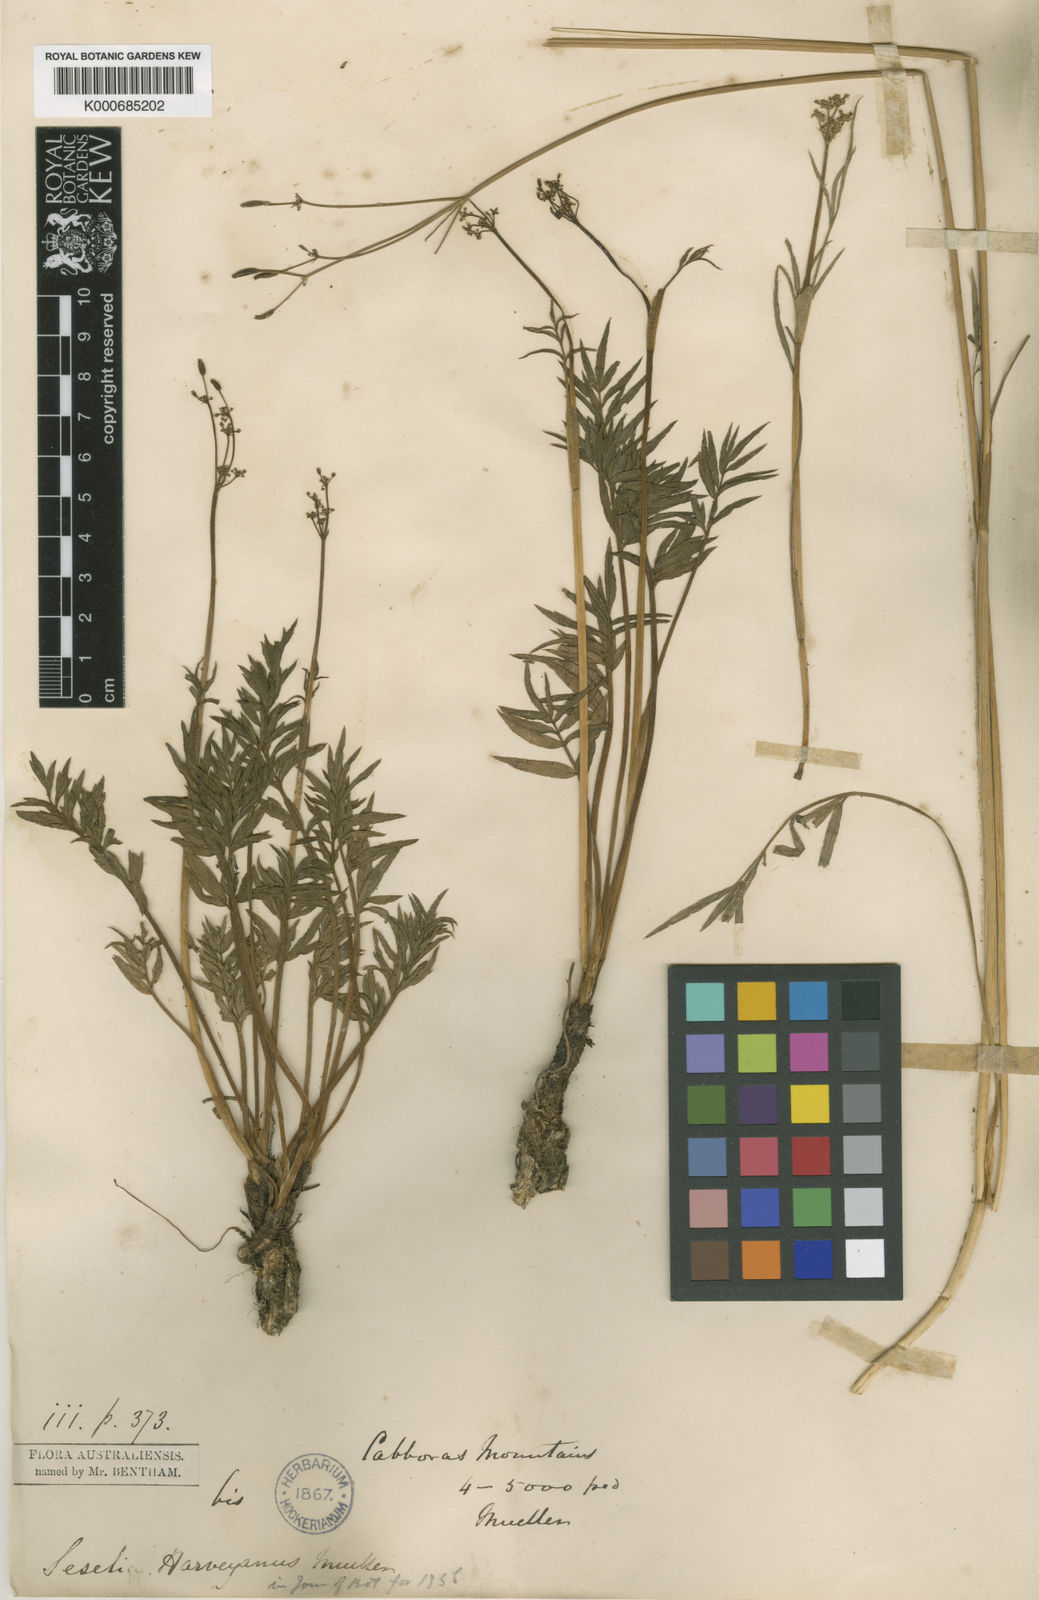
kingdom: Plantae
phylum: Tracheophyta
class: Magnoliopsida
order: Apiales
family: Apiaceae
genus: Gingidia
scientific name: Gingidia harveyana
